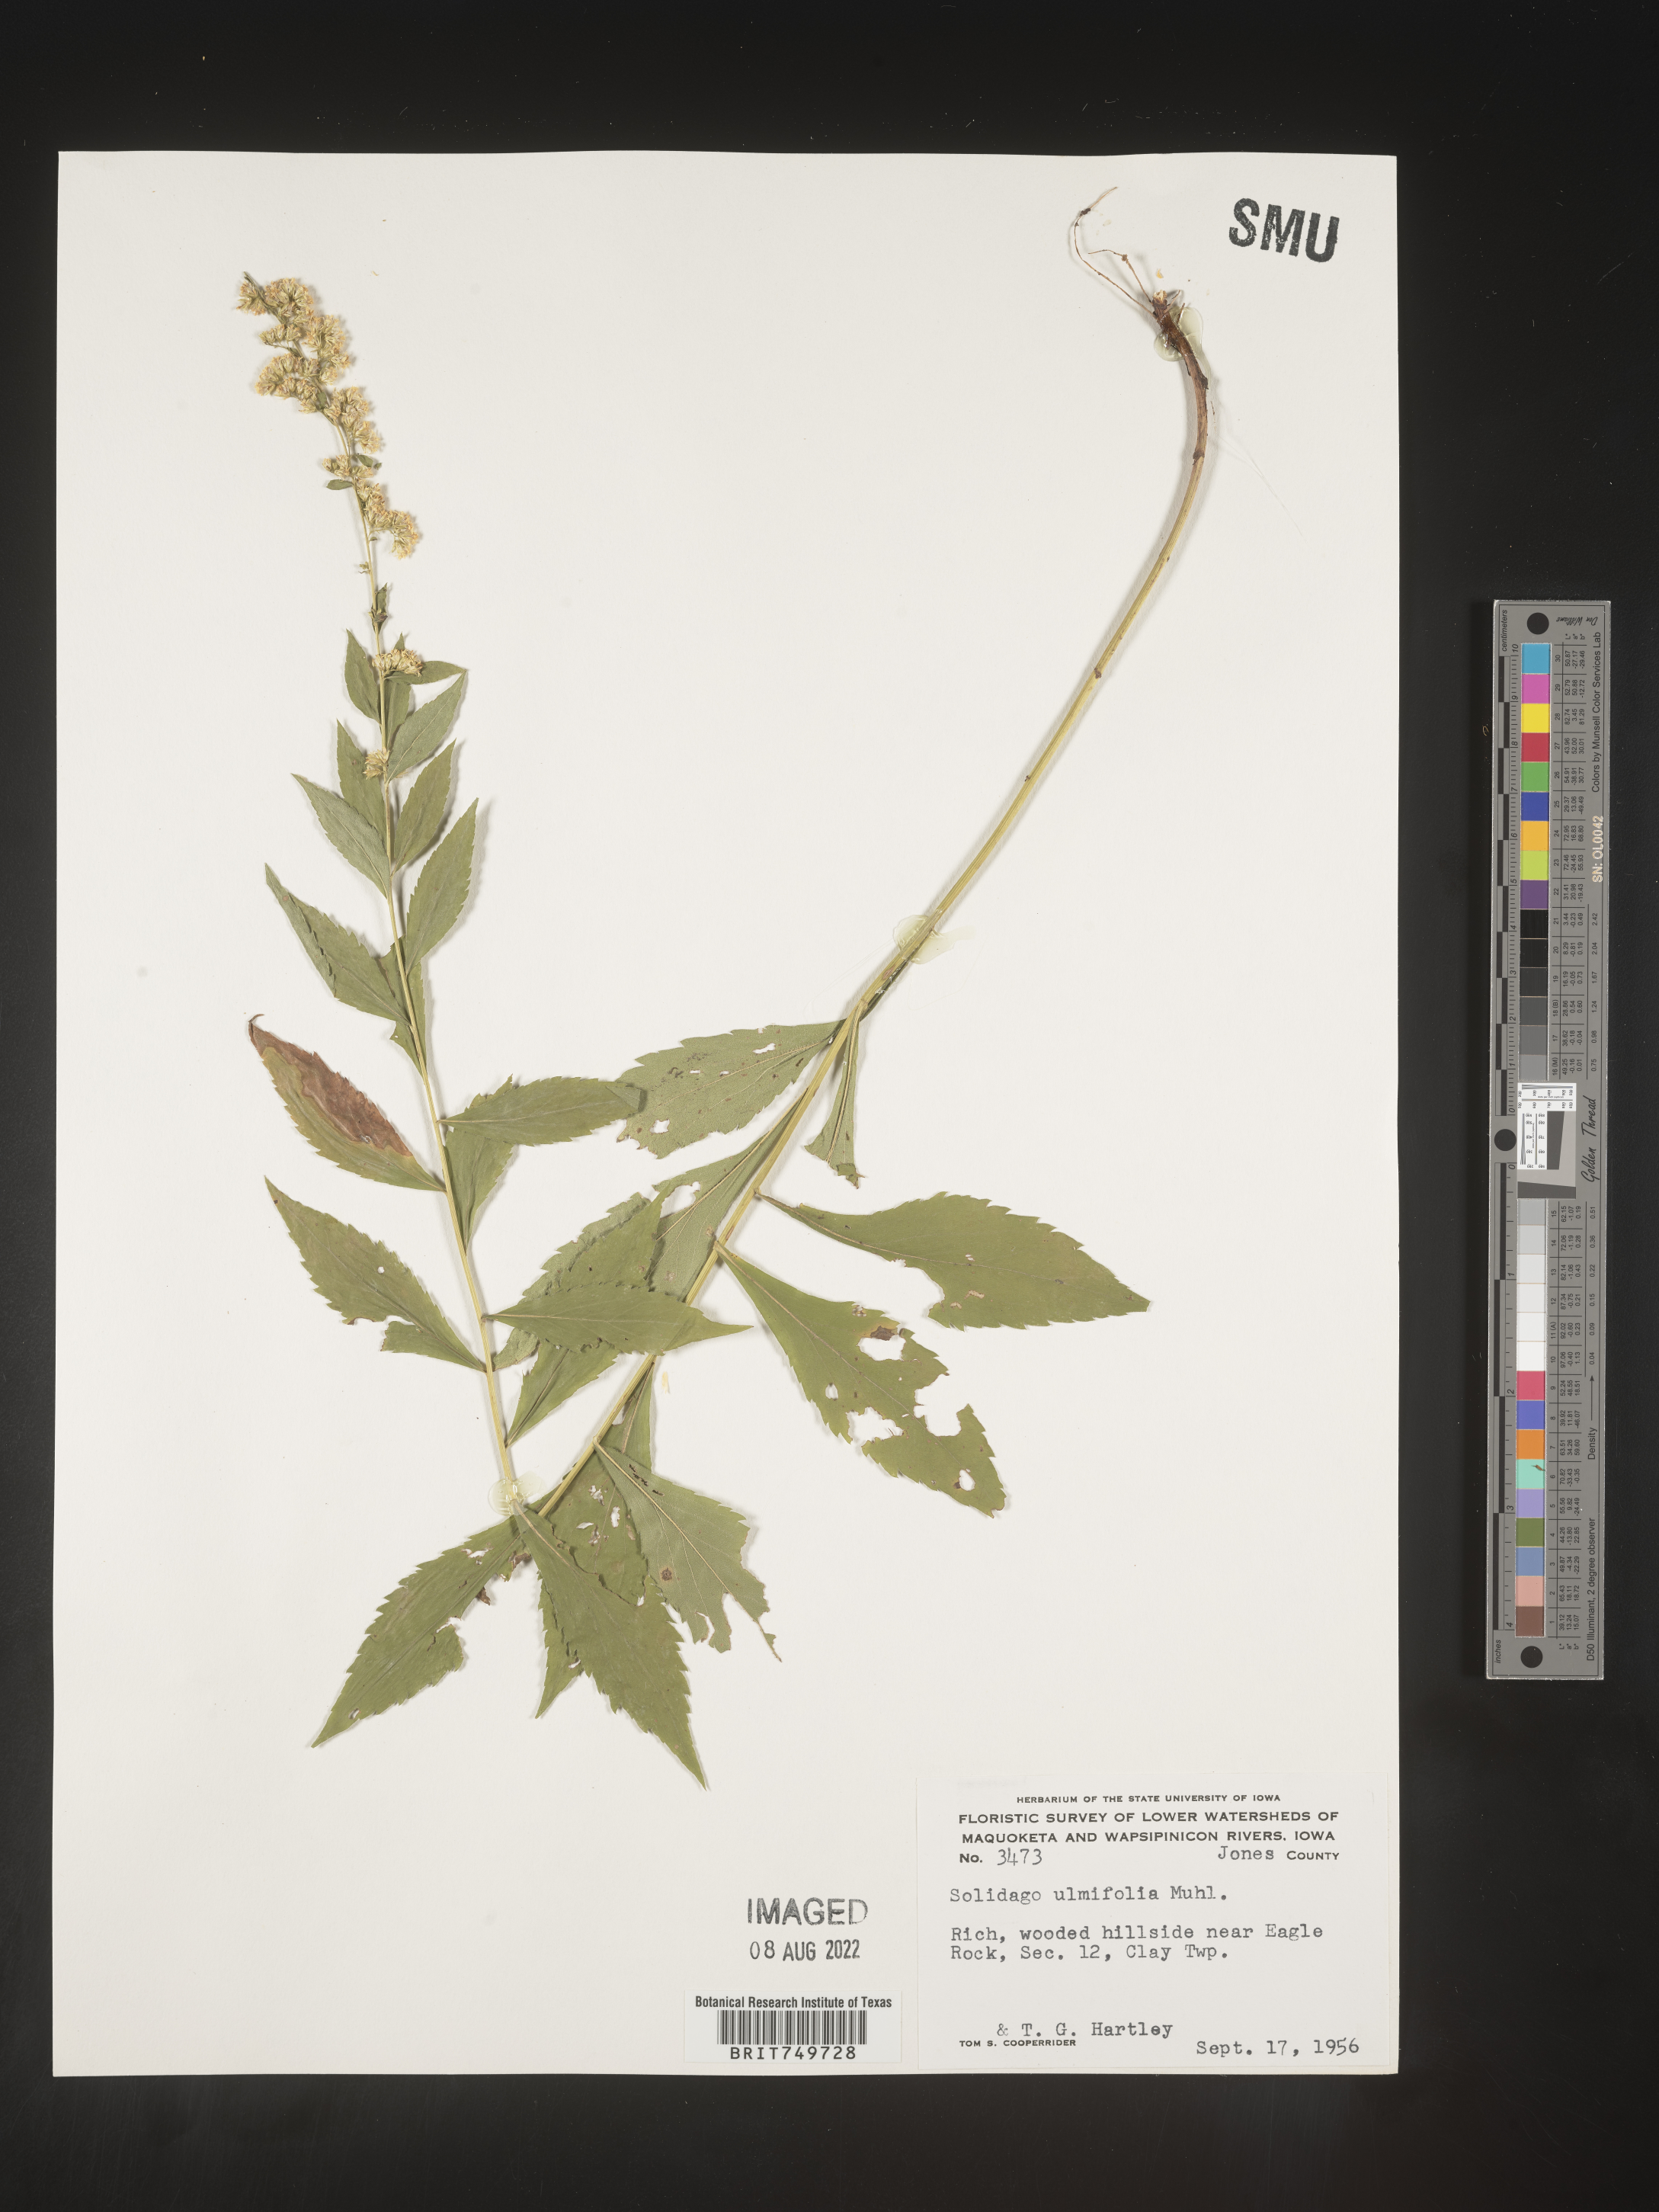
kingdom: Plantae
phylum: Tracheophyta
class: Magnoliopsida
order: Asterales
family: Asteraceae
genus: Solidago
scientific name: Solidago ulmifolia
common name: Elm-leaf goldenrod
